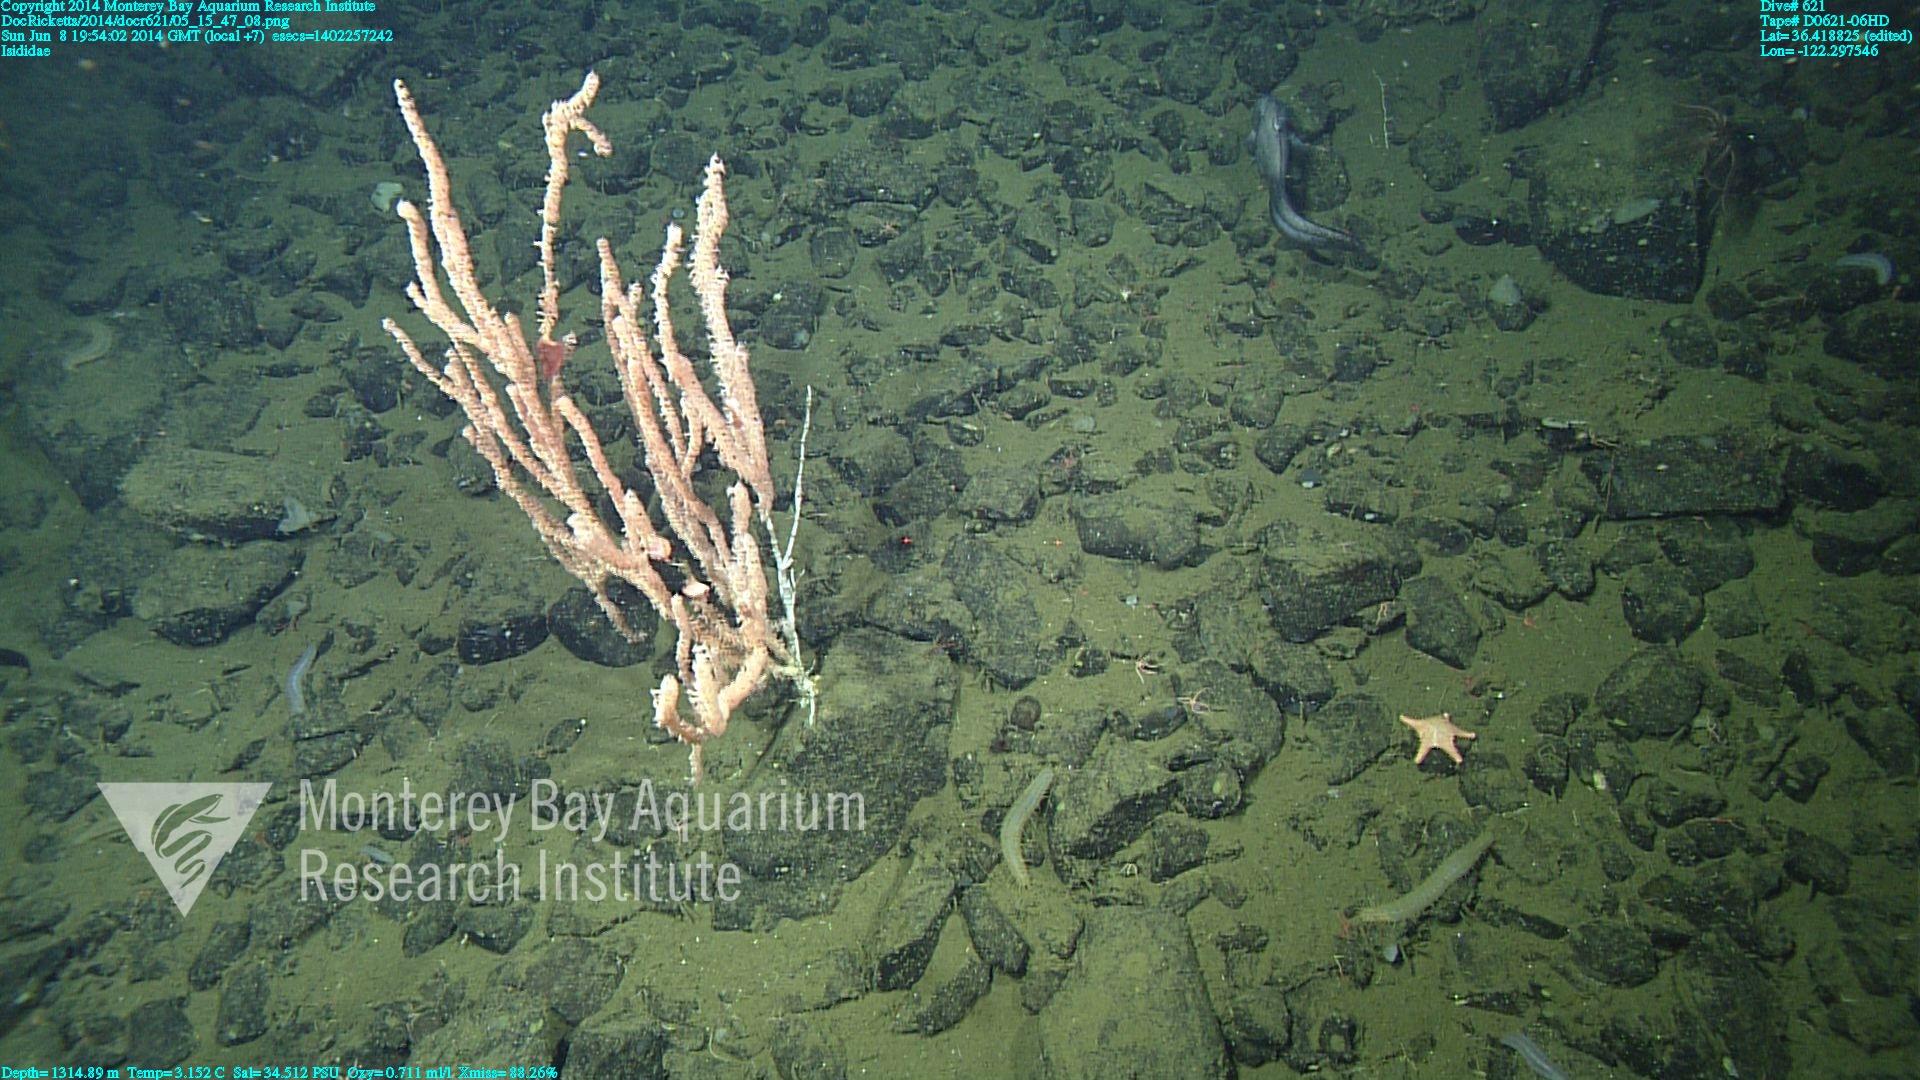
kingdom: Animalia
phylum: Cnidaria
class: Anthozoa
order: Scleralcyonacea
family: Keratoisididae
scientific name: Keratoisididae
